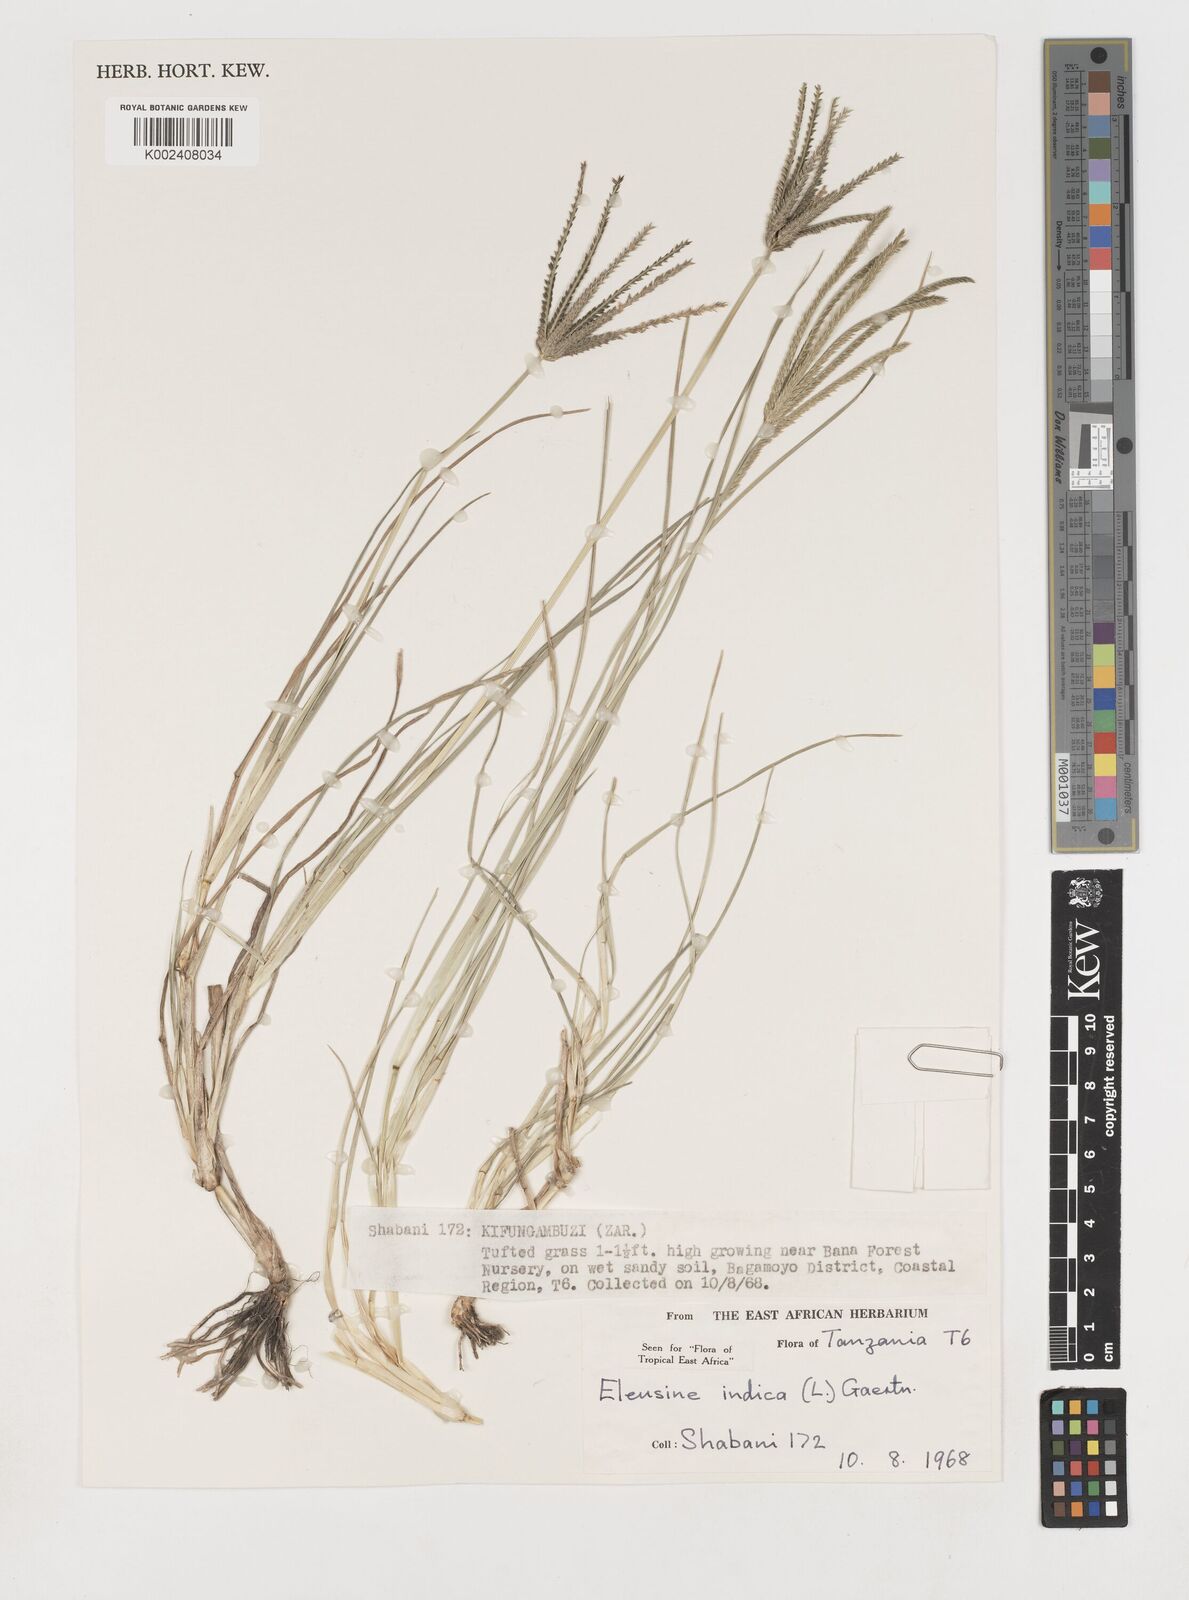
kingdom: Plantae
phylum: Tracheophyta
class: Liliopsida
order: Poales
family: Poaceae
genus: Eleusine
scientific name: Eleusine indica
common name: Yard-grass
